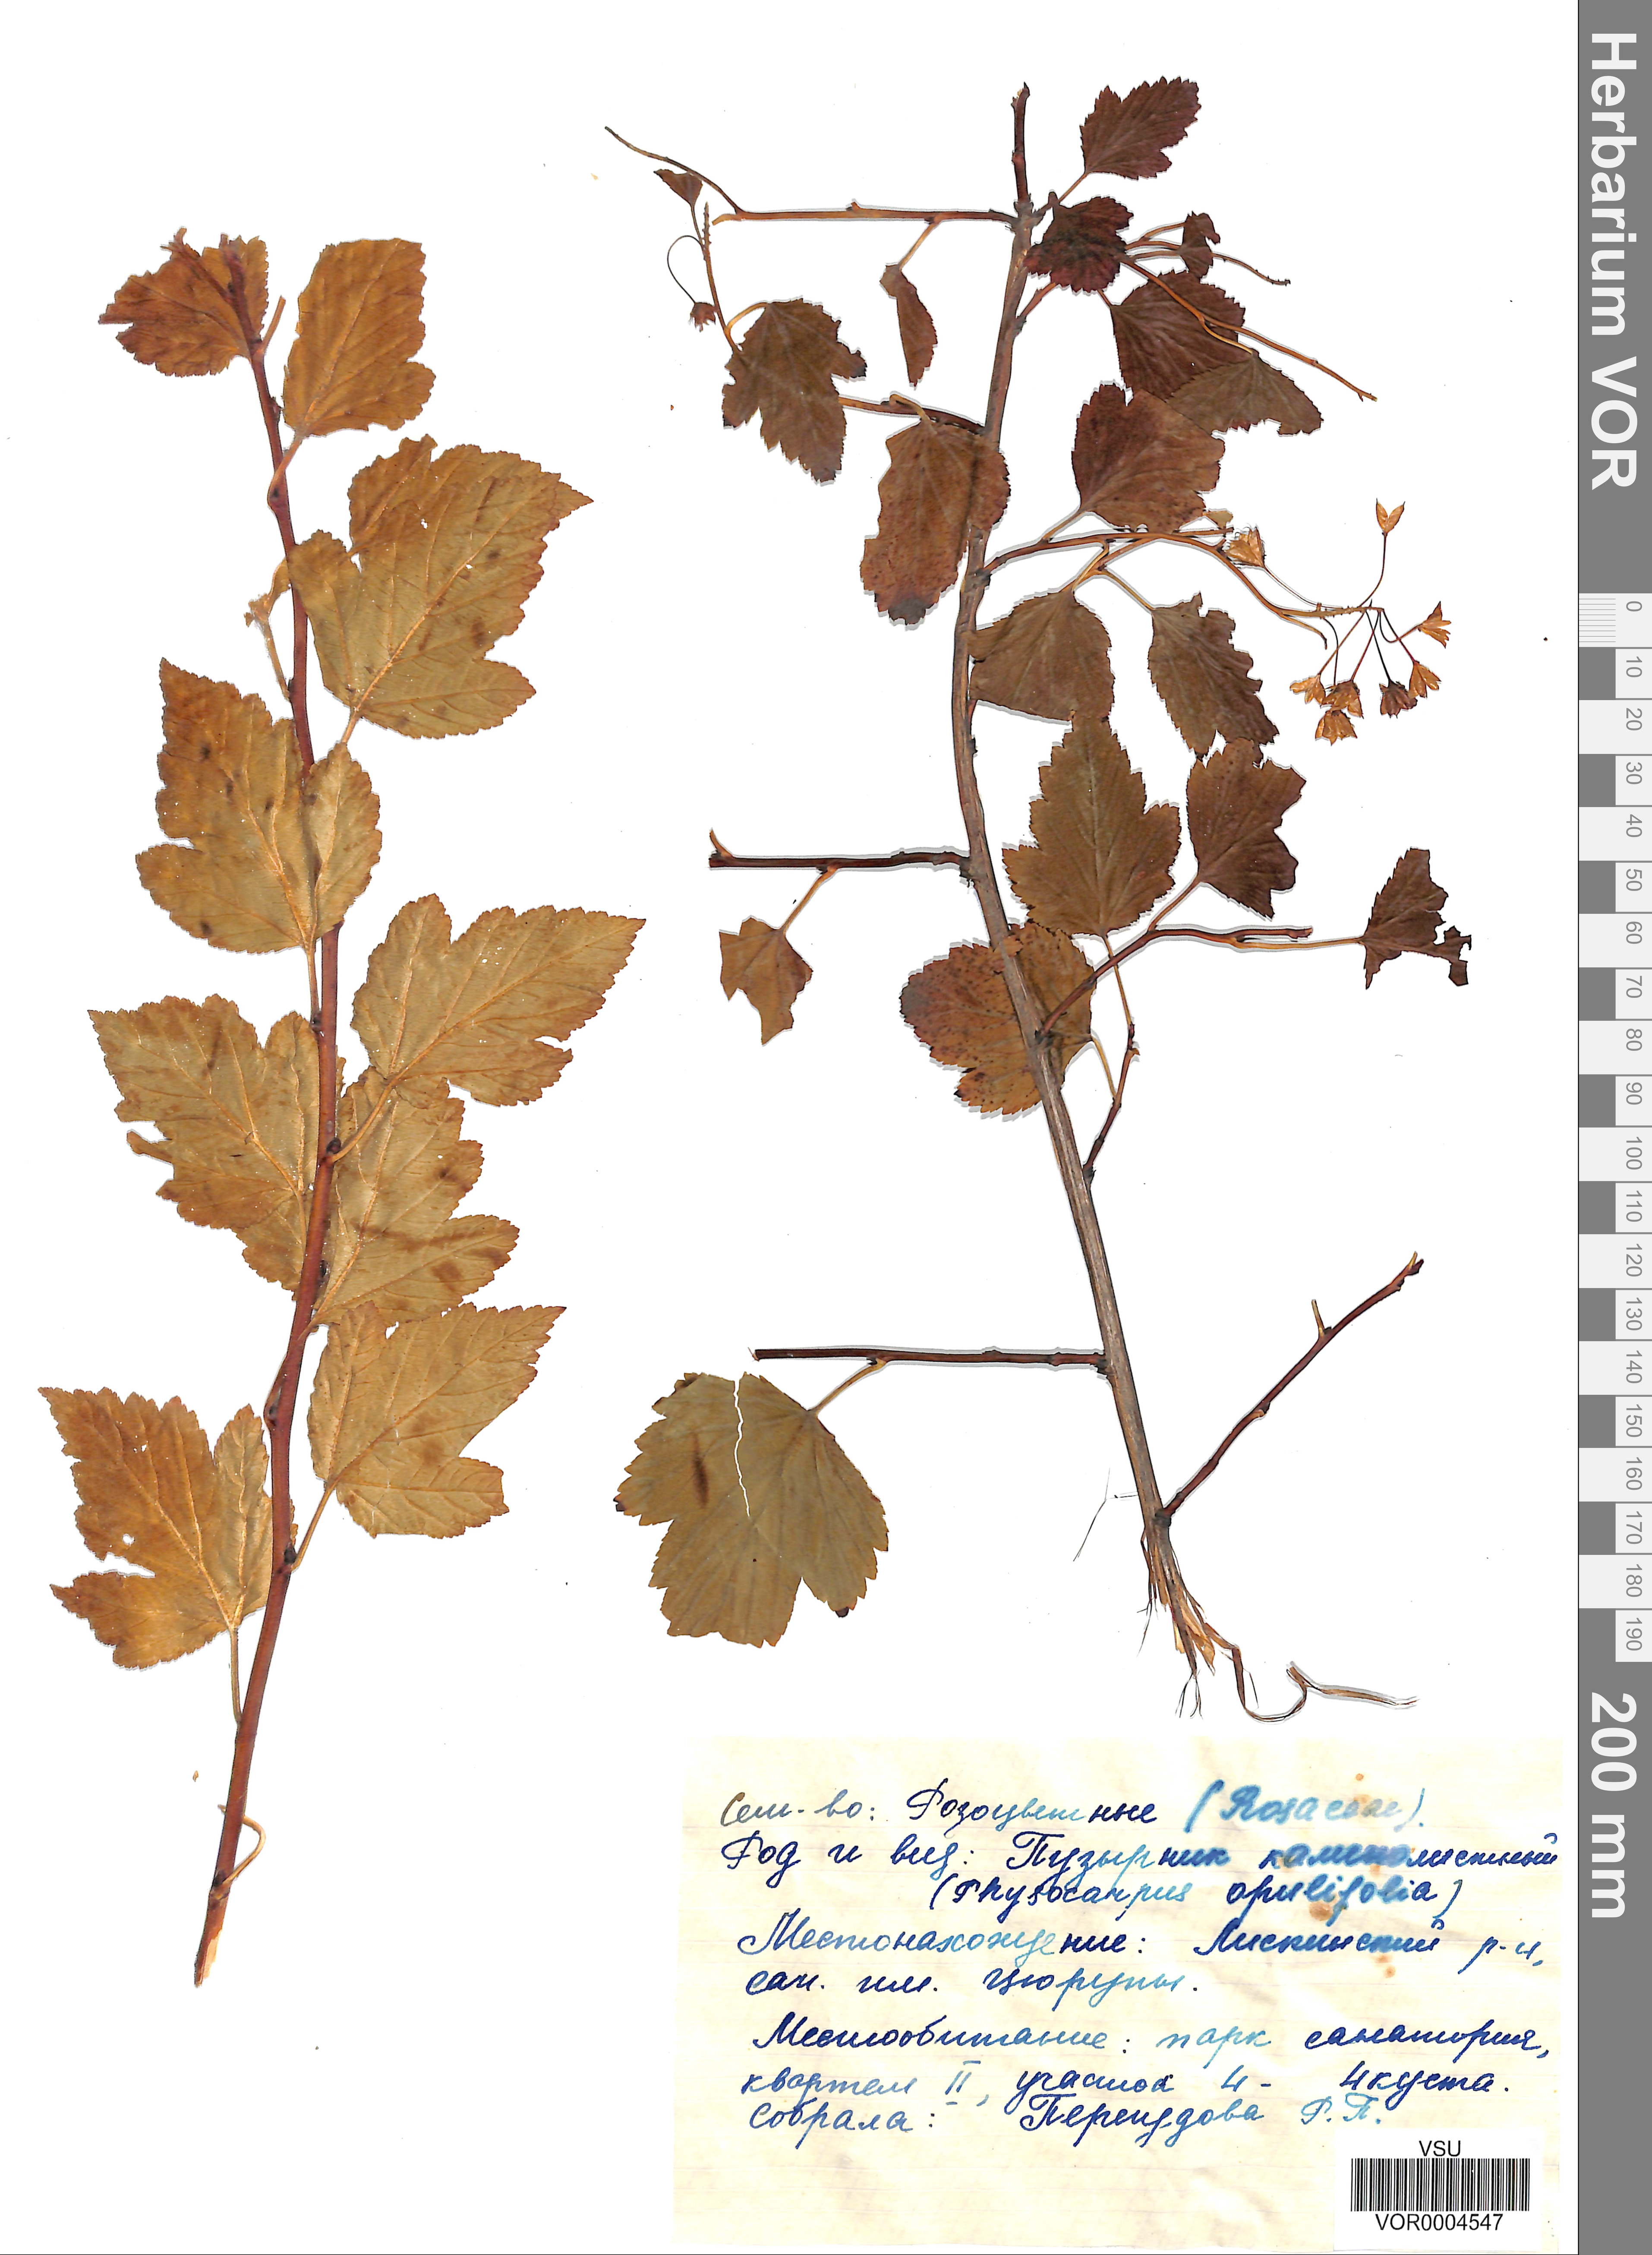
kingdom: Plantae
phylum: Tracheophyta
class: Magnoliopsida
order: Rosales
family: Rosaceae
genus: Physocarpus
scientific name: Physocarpus opulifolius
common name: Ninebark
